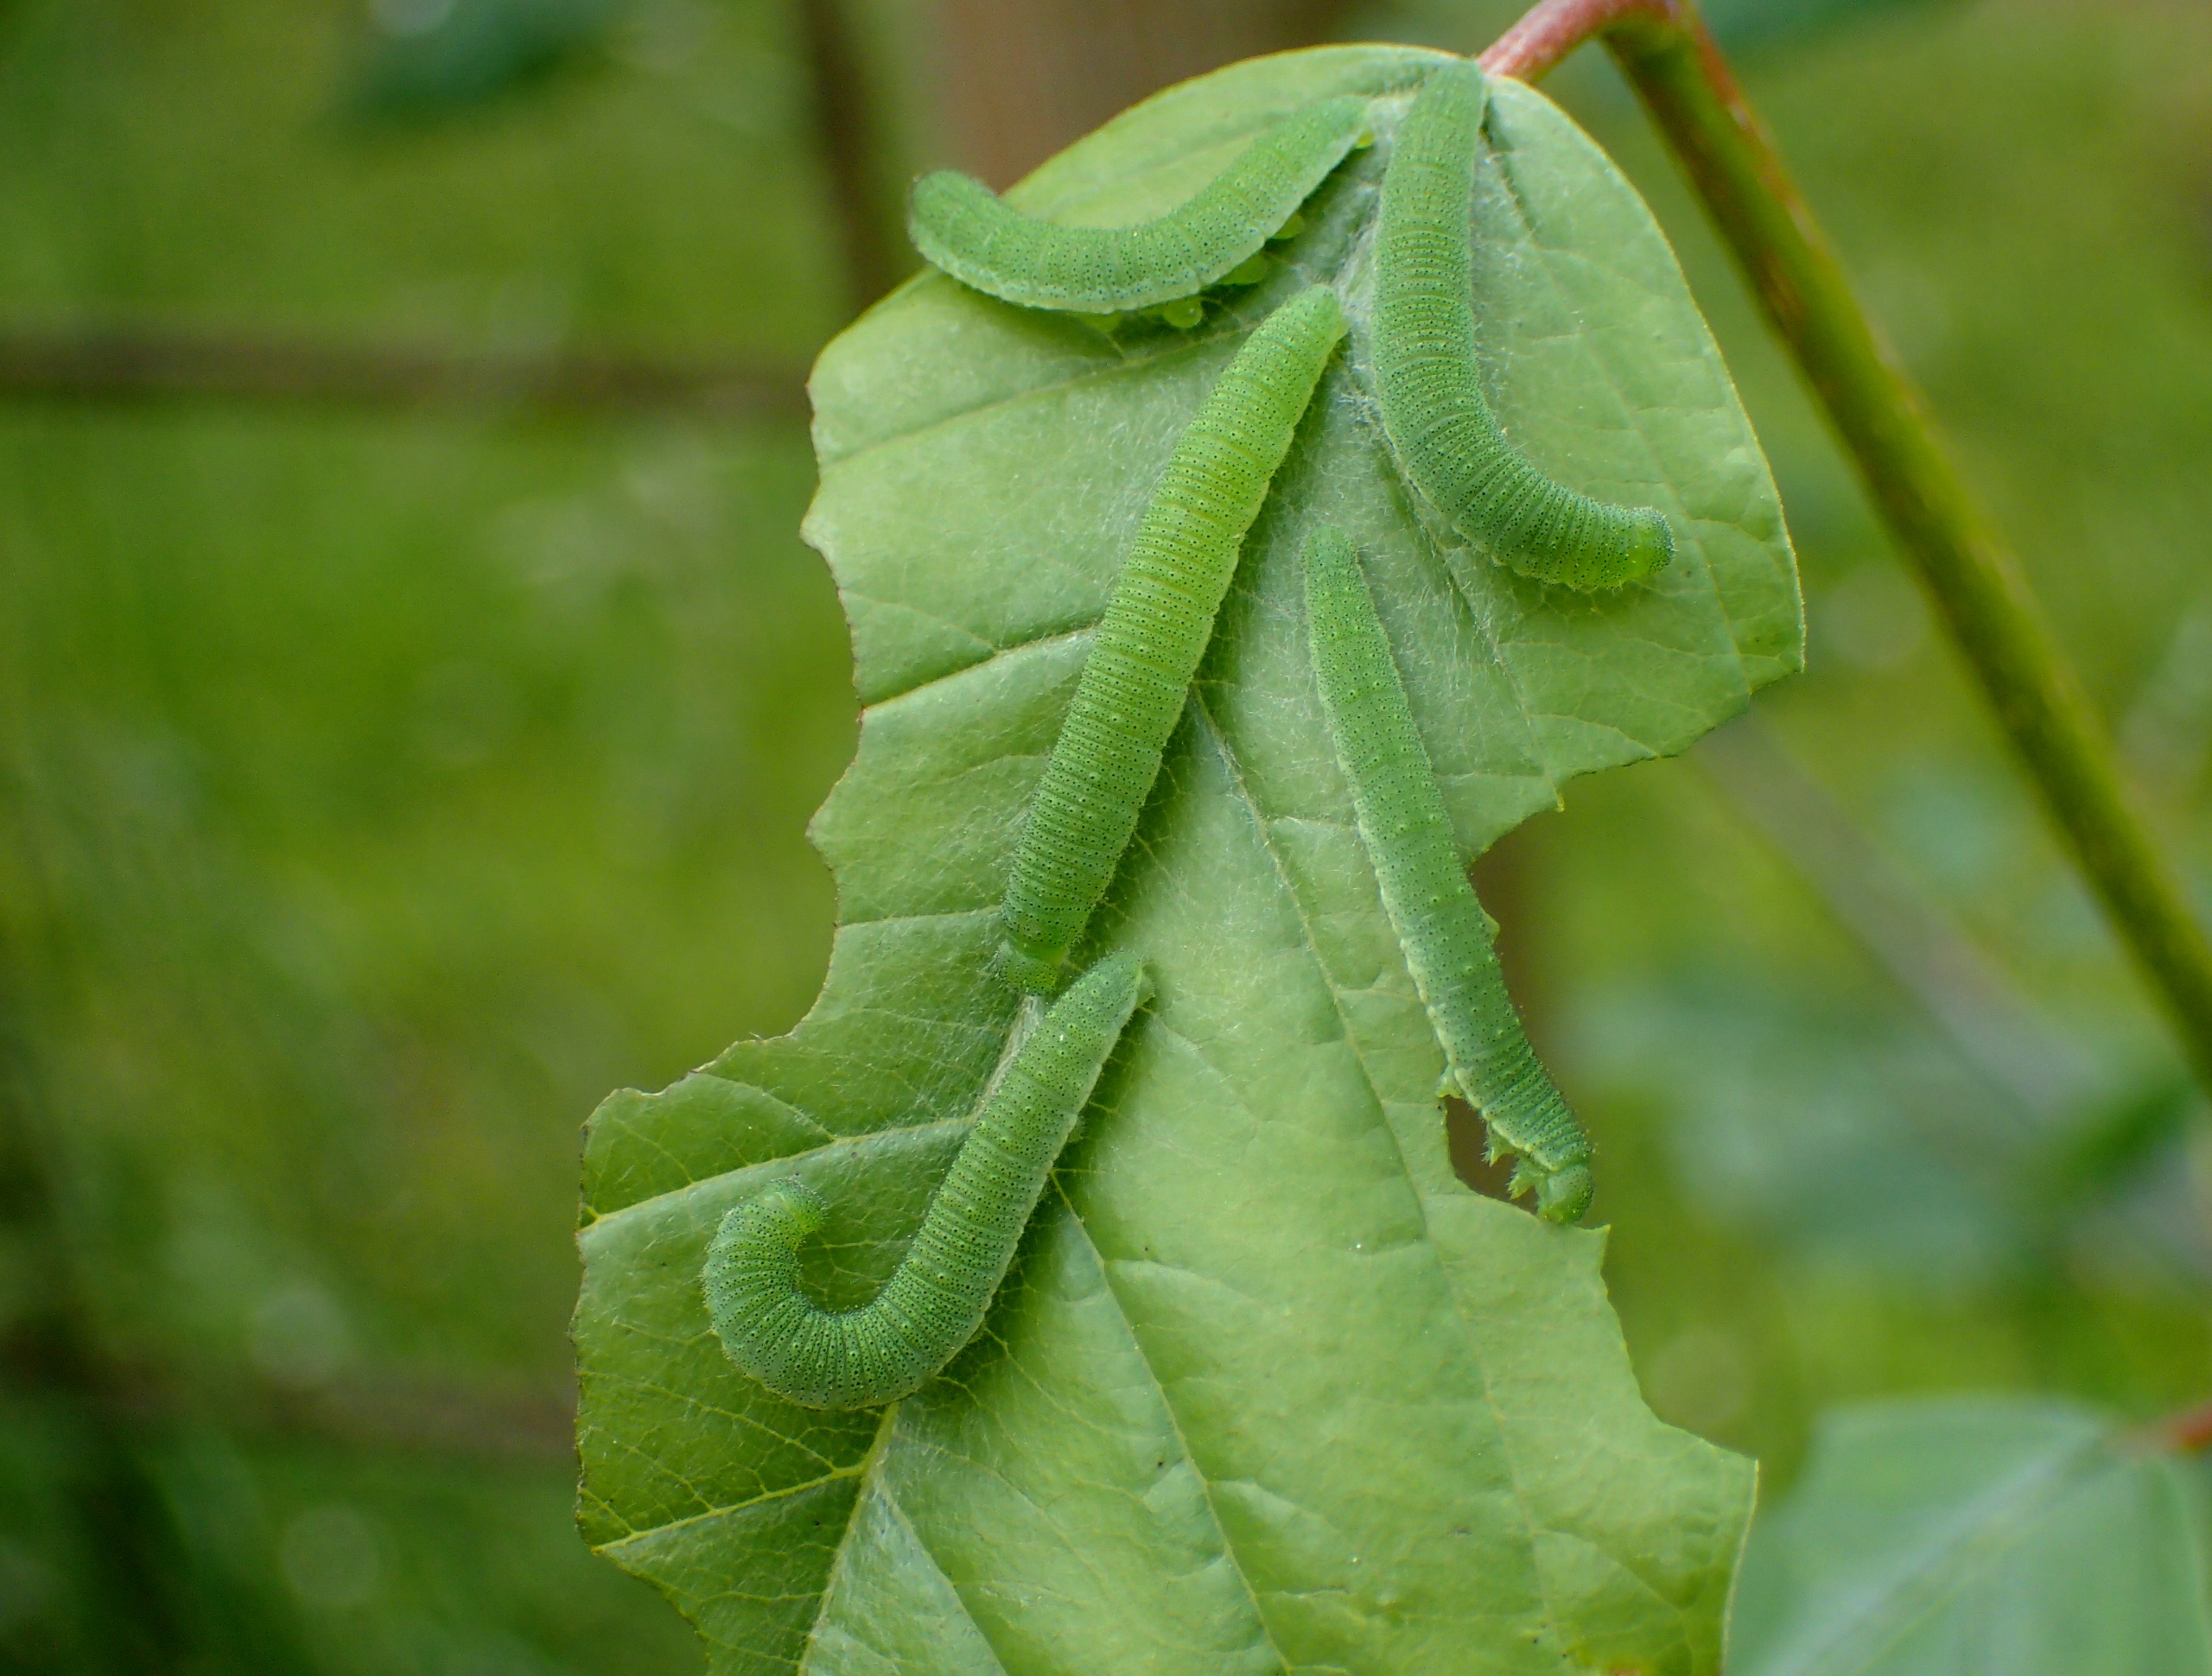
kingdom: Animalia
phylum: Arthropoda
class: Insecta
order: Lepidoptera
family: Pieridae
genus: Gonepteryx
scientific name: Gonepteryx rhamni
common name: Citronsommerfugl
